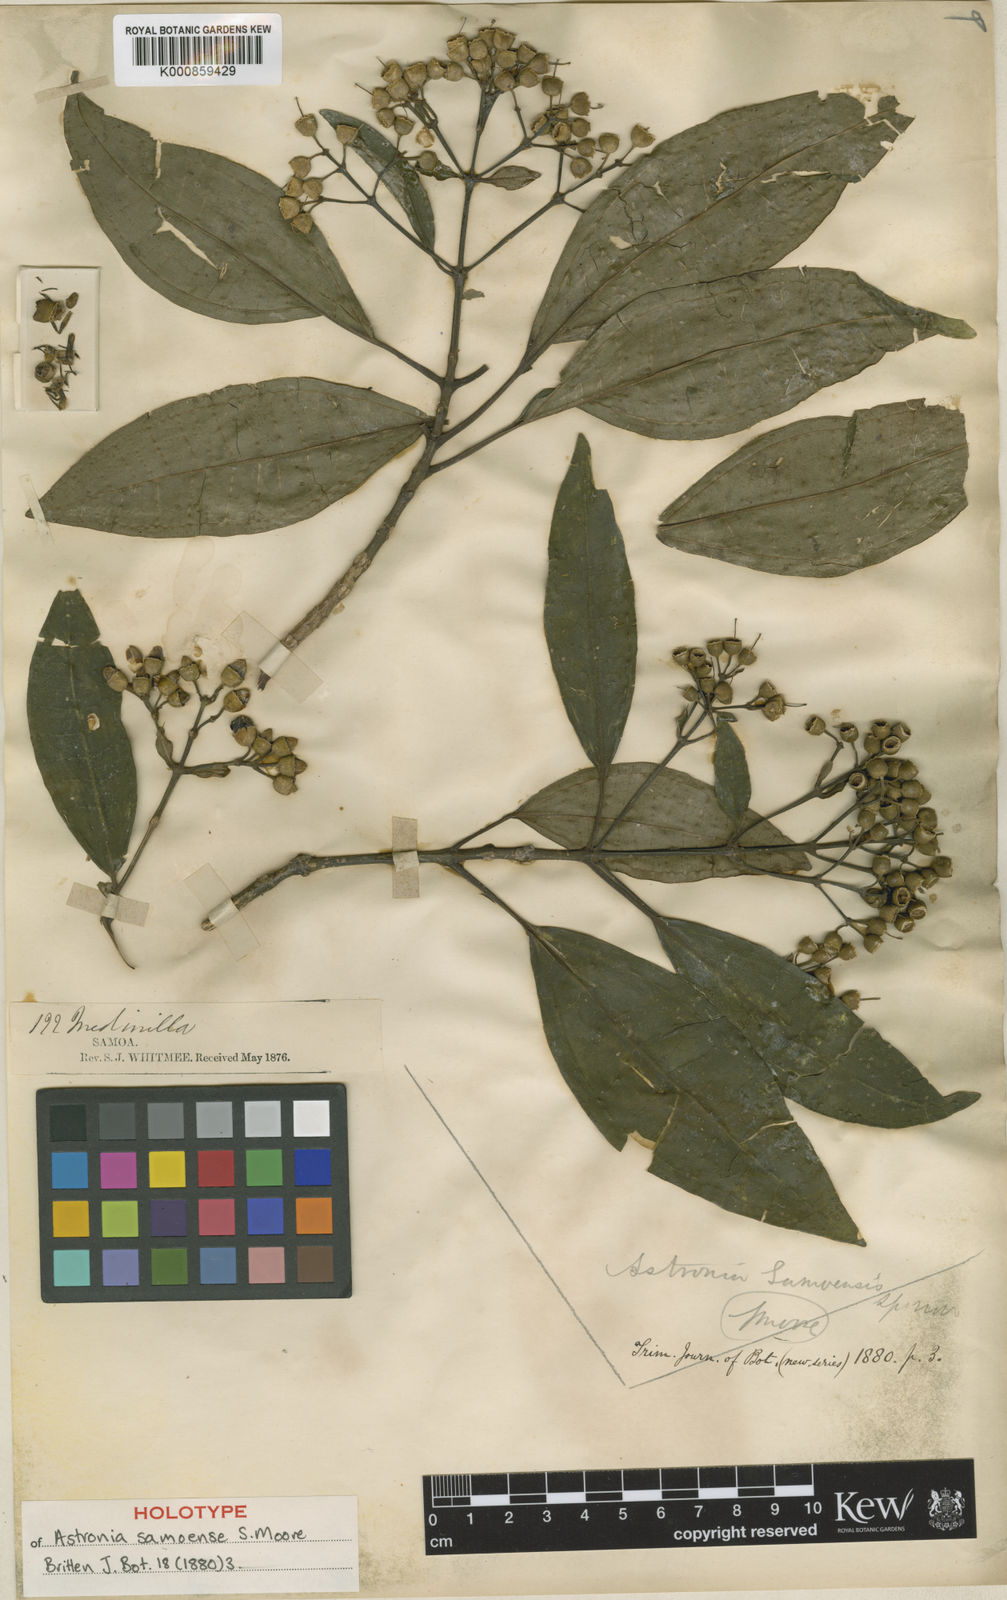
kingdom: Plantae
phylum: Tracheophyta
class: Magnoliopsida
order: Myrtales
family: Melastomataceae
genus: Astronidium
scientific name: Astronidium glabrum
